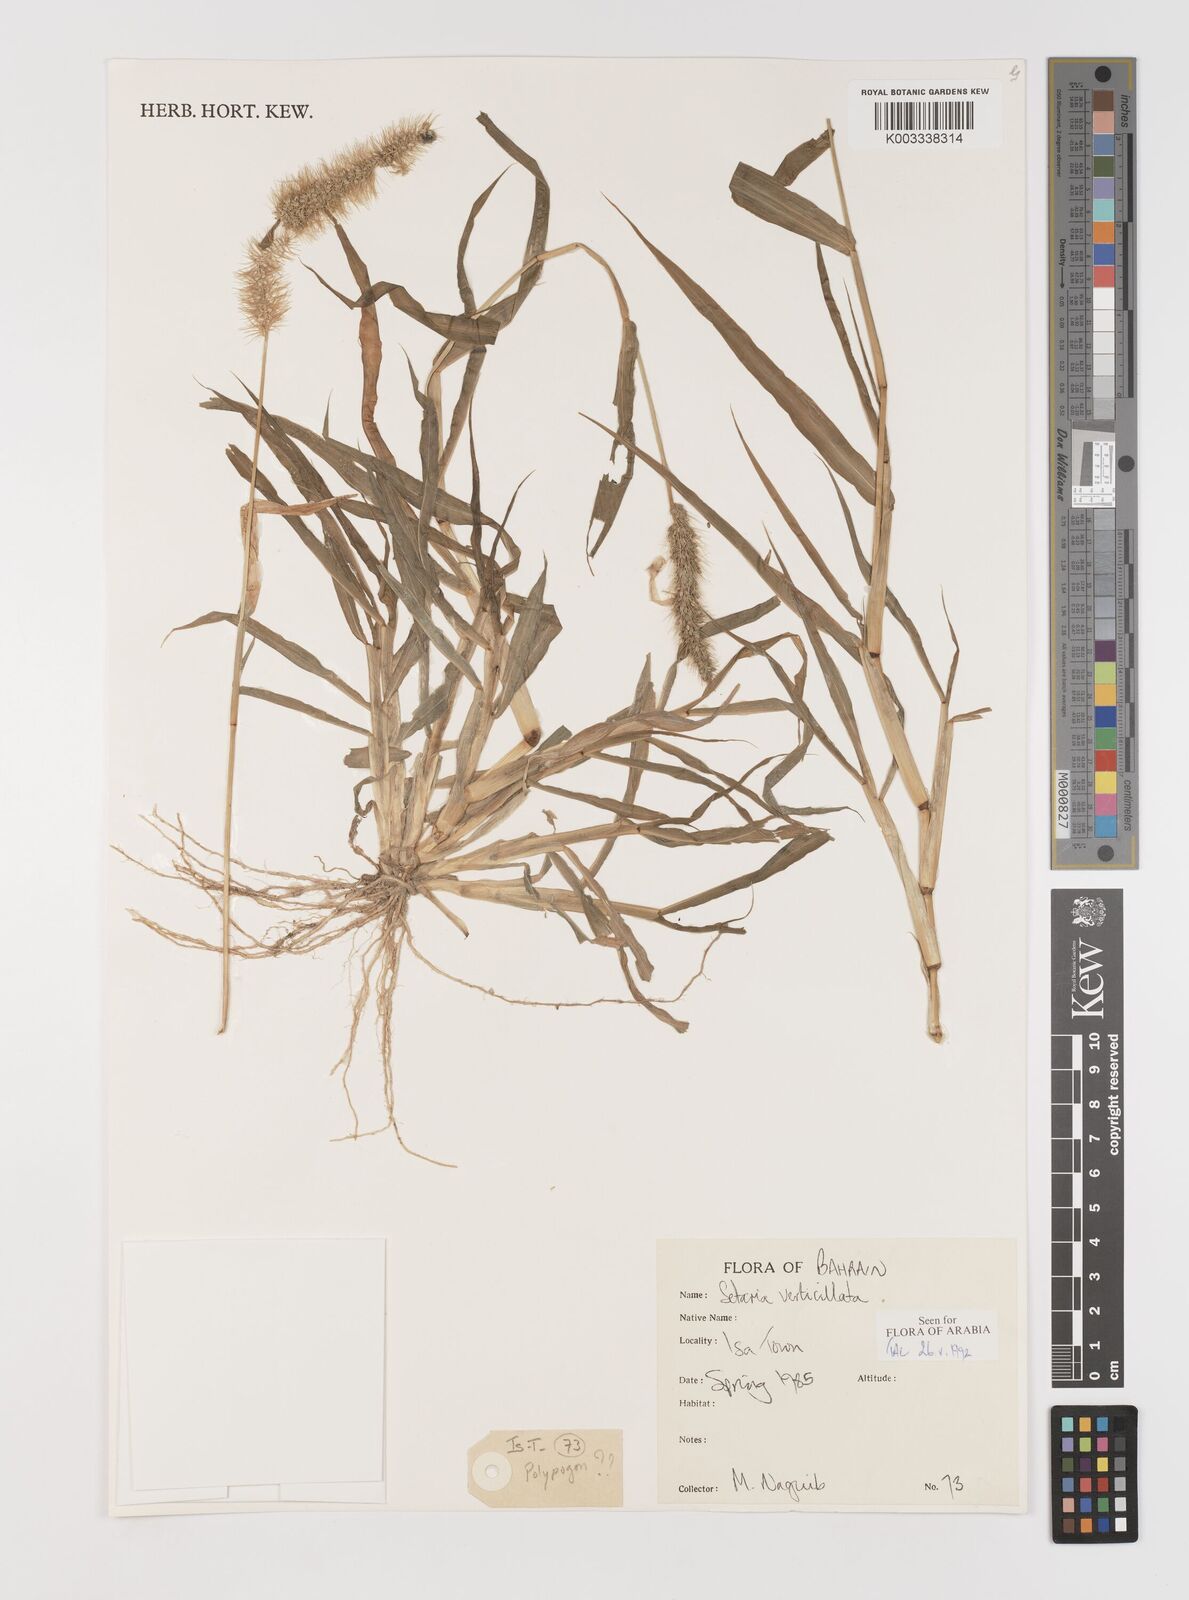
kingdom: Plantae
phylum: Tracheophyta
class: Liliopsida
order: Poales
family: Poaceae
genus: Setaria
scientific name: Setaria verticillata
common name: Hooked bristlegrass
